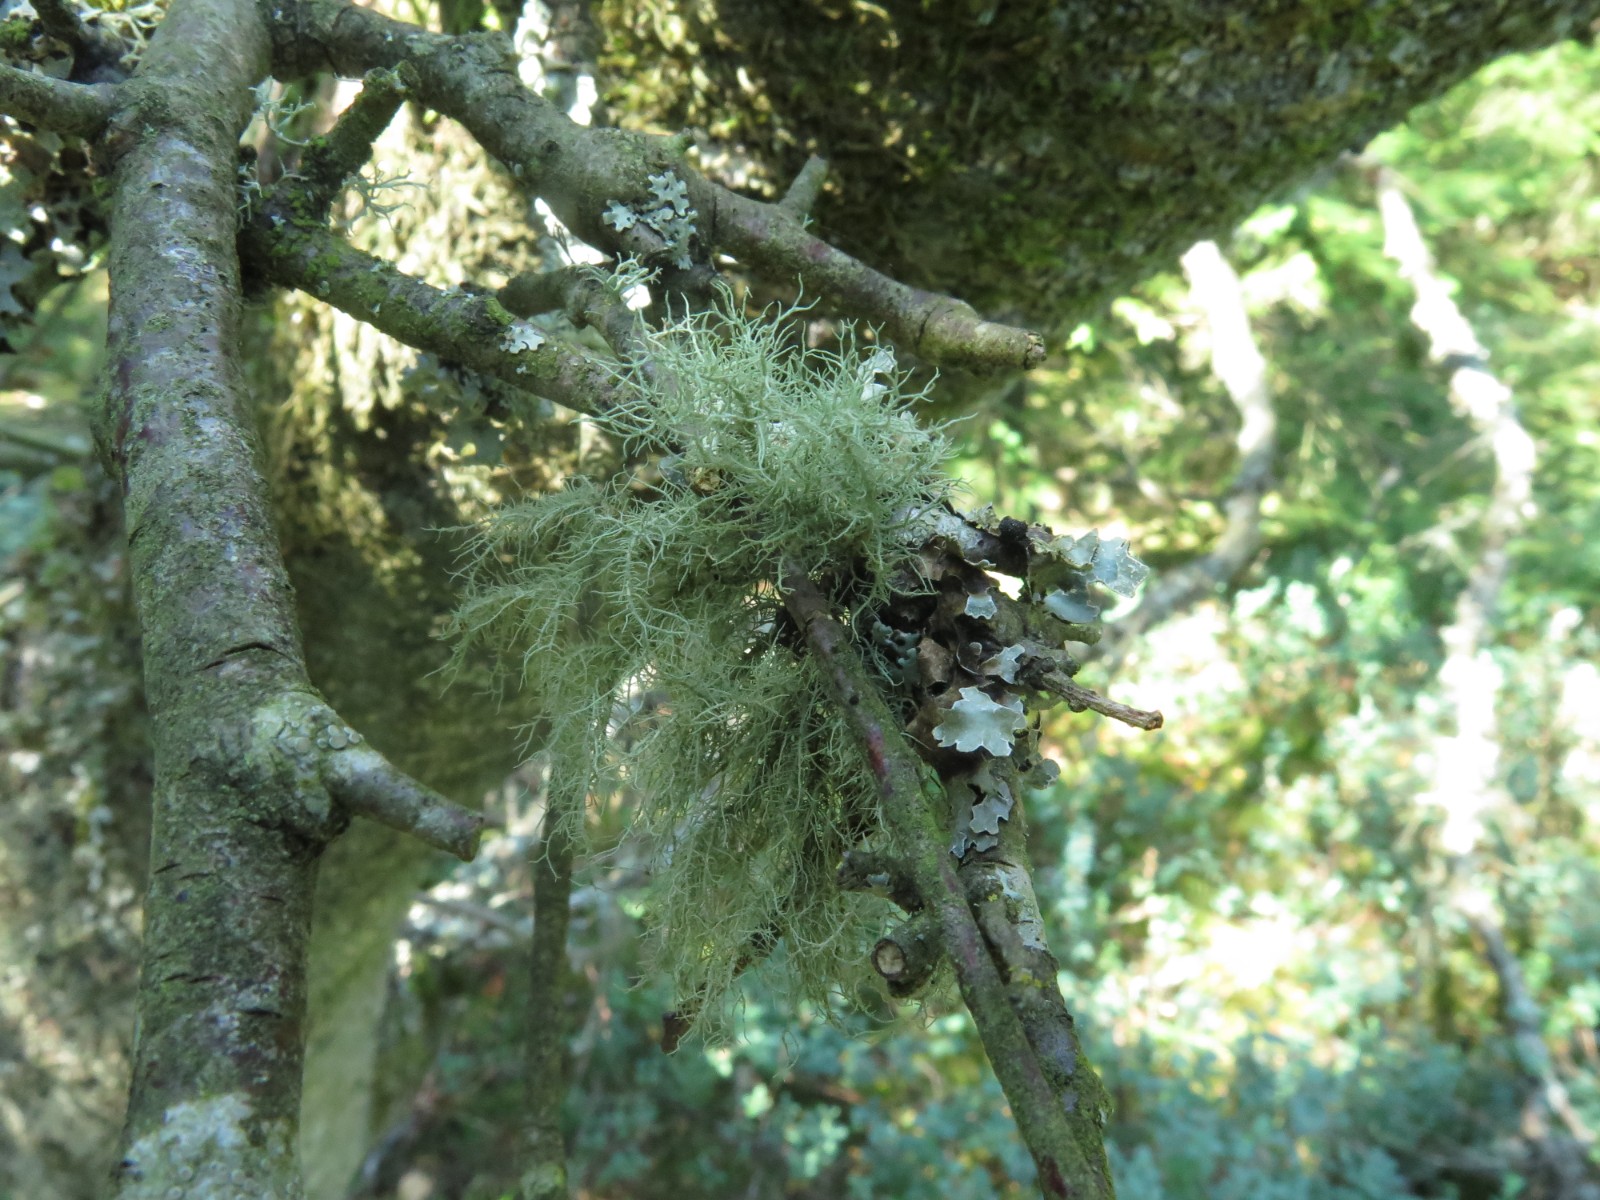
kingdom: Fungi
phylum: Ascomycota
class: Lecanoromycetes
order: Lecanorales
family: Parmeliaceae
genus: Usnea
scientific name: Usnea dasypoga
